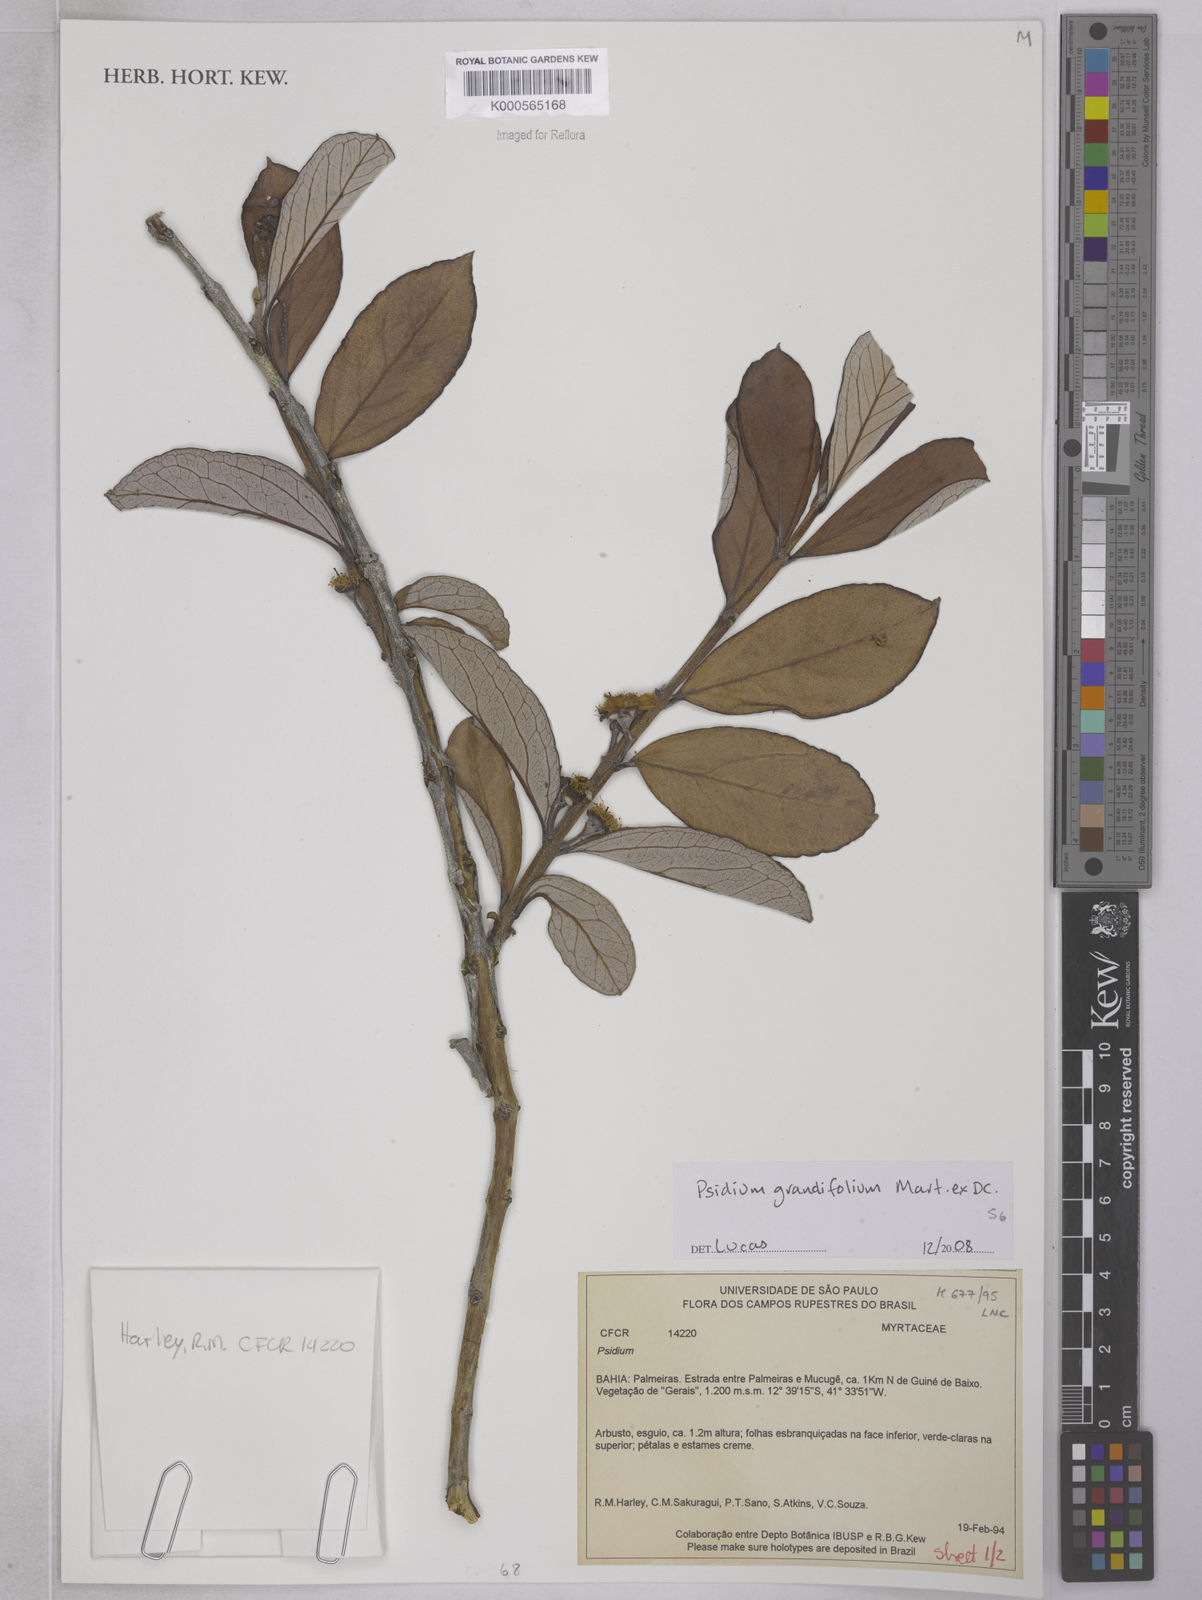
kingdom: Plantae
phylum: Tracheophyta
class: Magnoliopsida
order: Myrtales
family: Myrtaceae
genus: Psidium
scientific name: Psidium grandifolium
